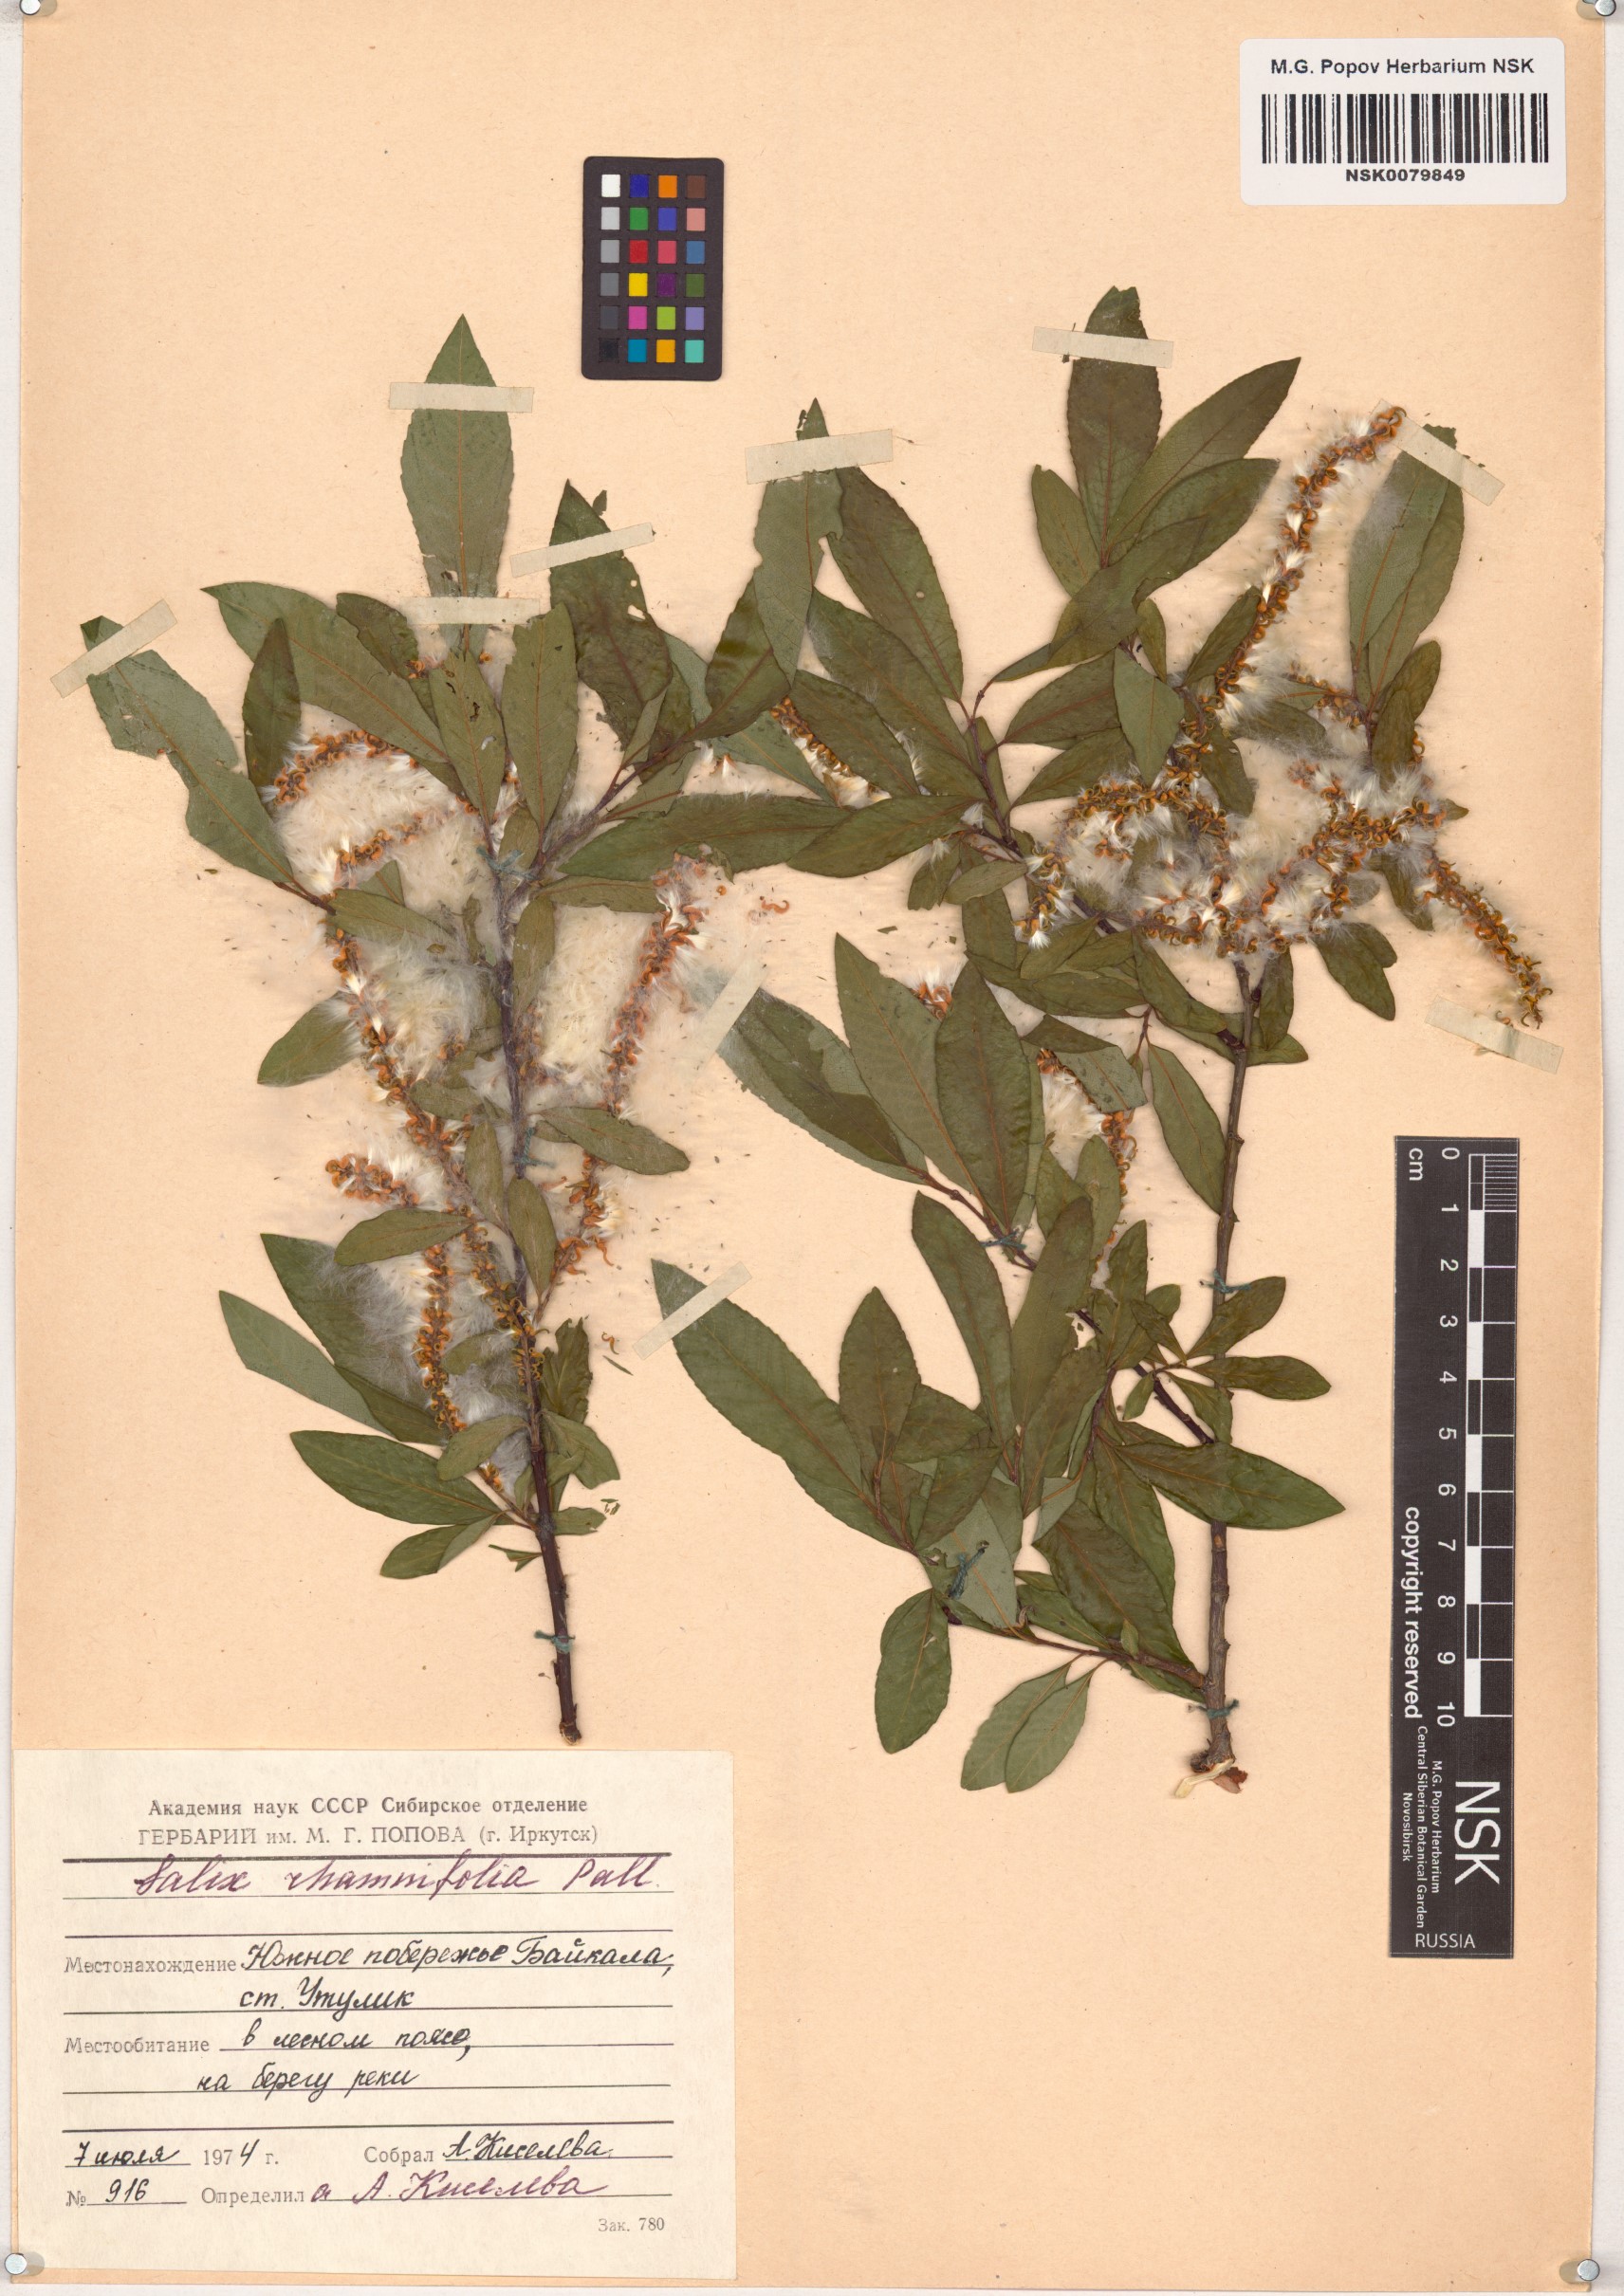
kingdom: Plantae
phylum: Tracheophyta
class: Magnoliopsida
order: Malpighiales
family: Salicaceae
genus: Salix
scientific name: Salix rhamnifolia
